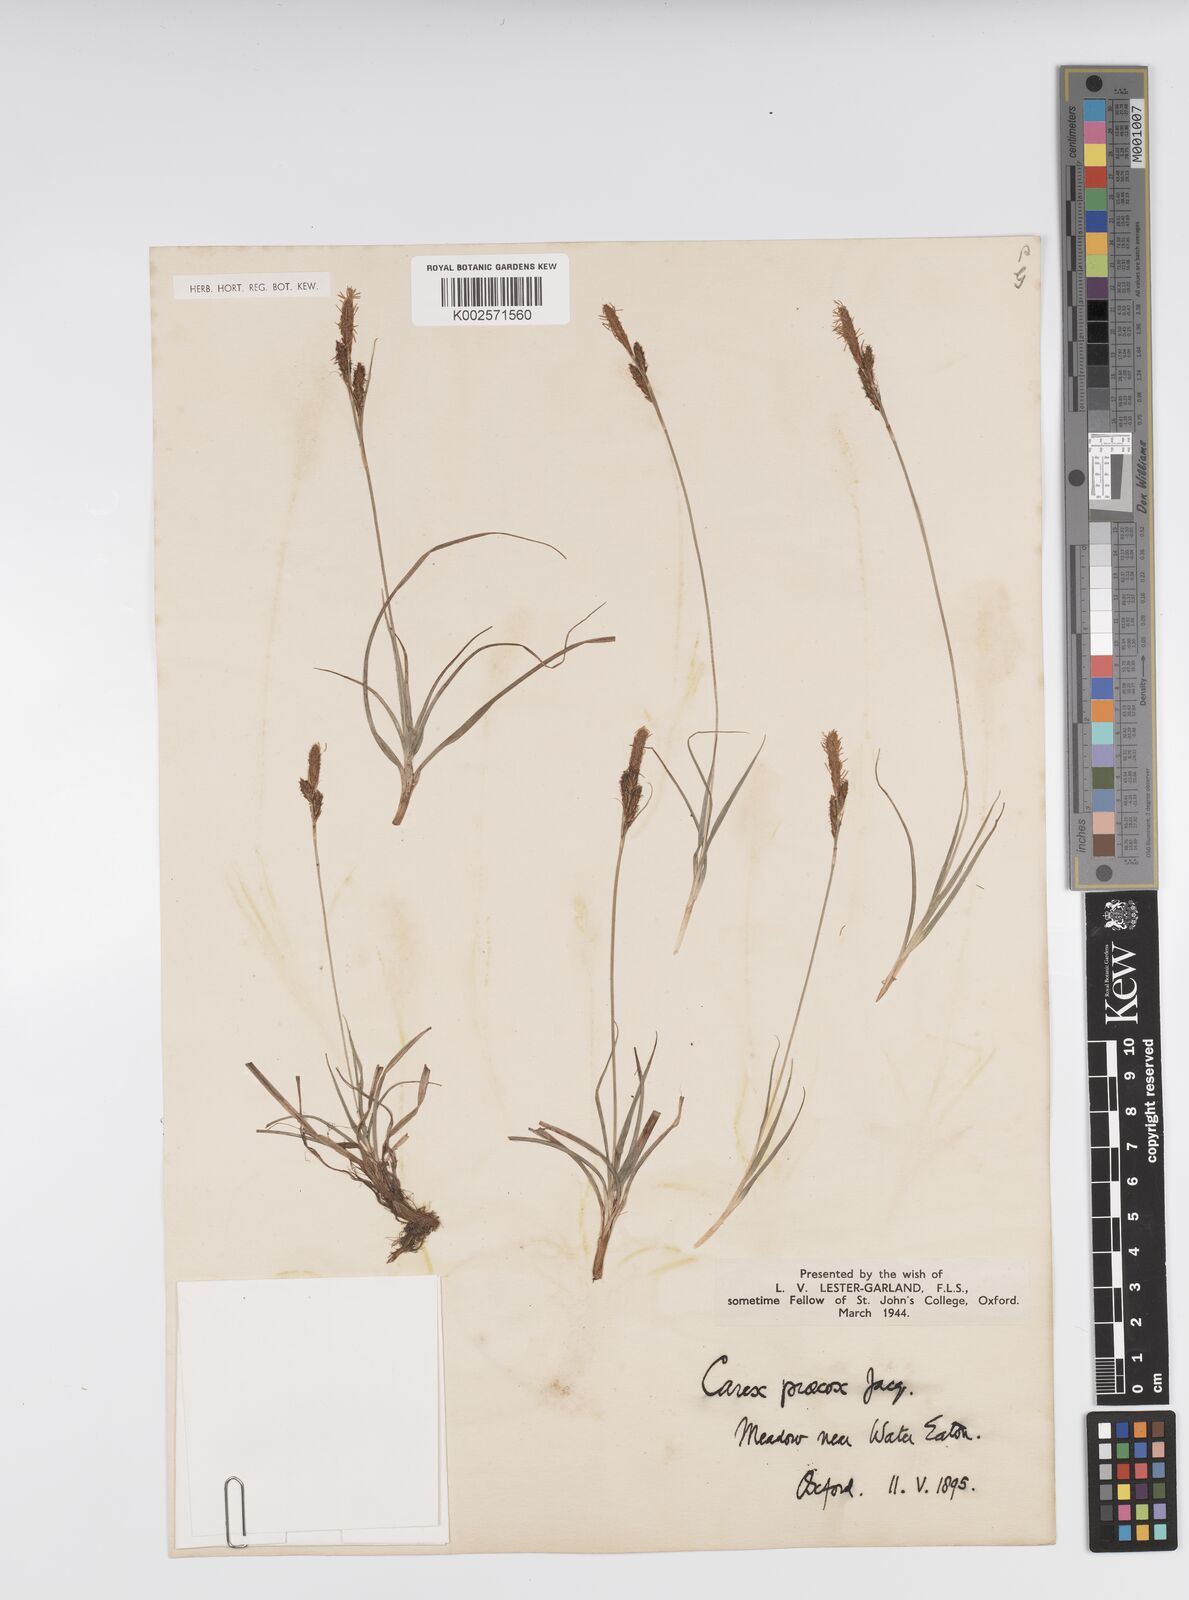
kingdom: Plantae
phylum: Tracheophyta
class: Liliopsida
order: Poales
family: Cyperaceae
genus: Carex
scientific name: Carex caryophyllea
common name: Spring sedge
